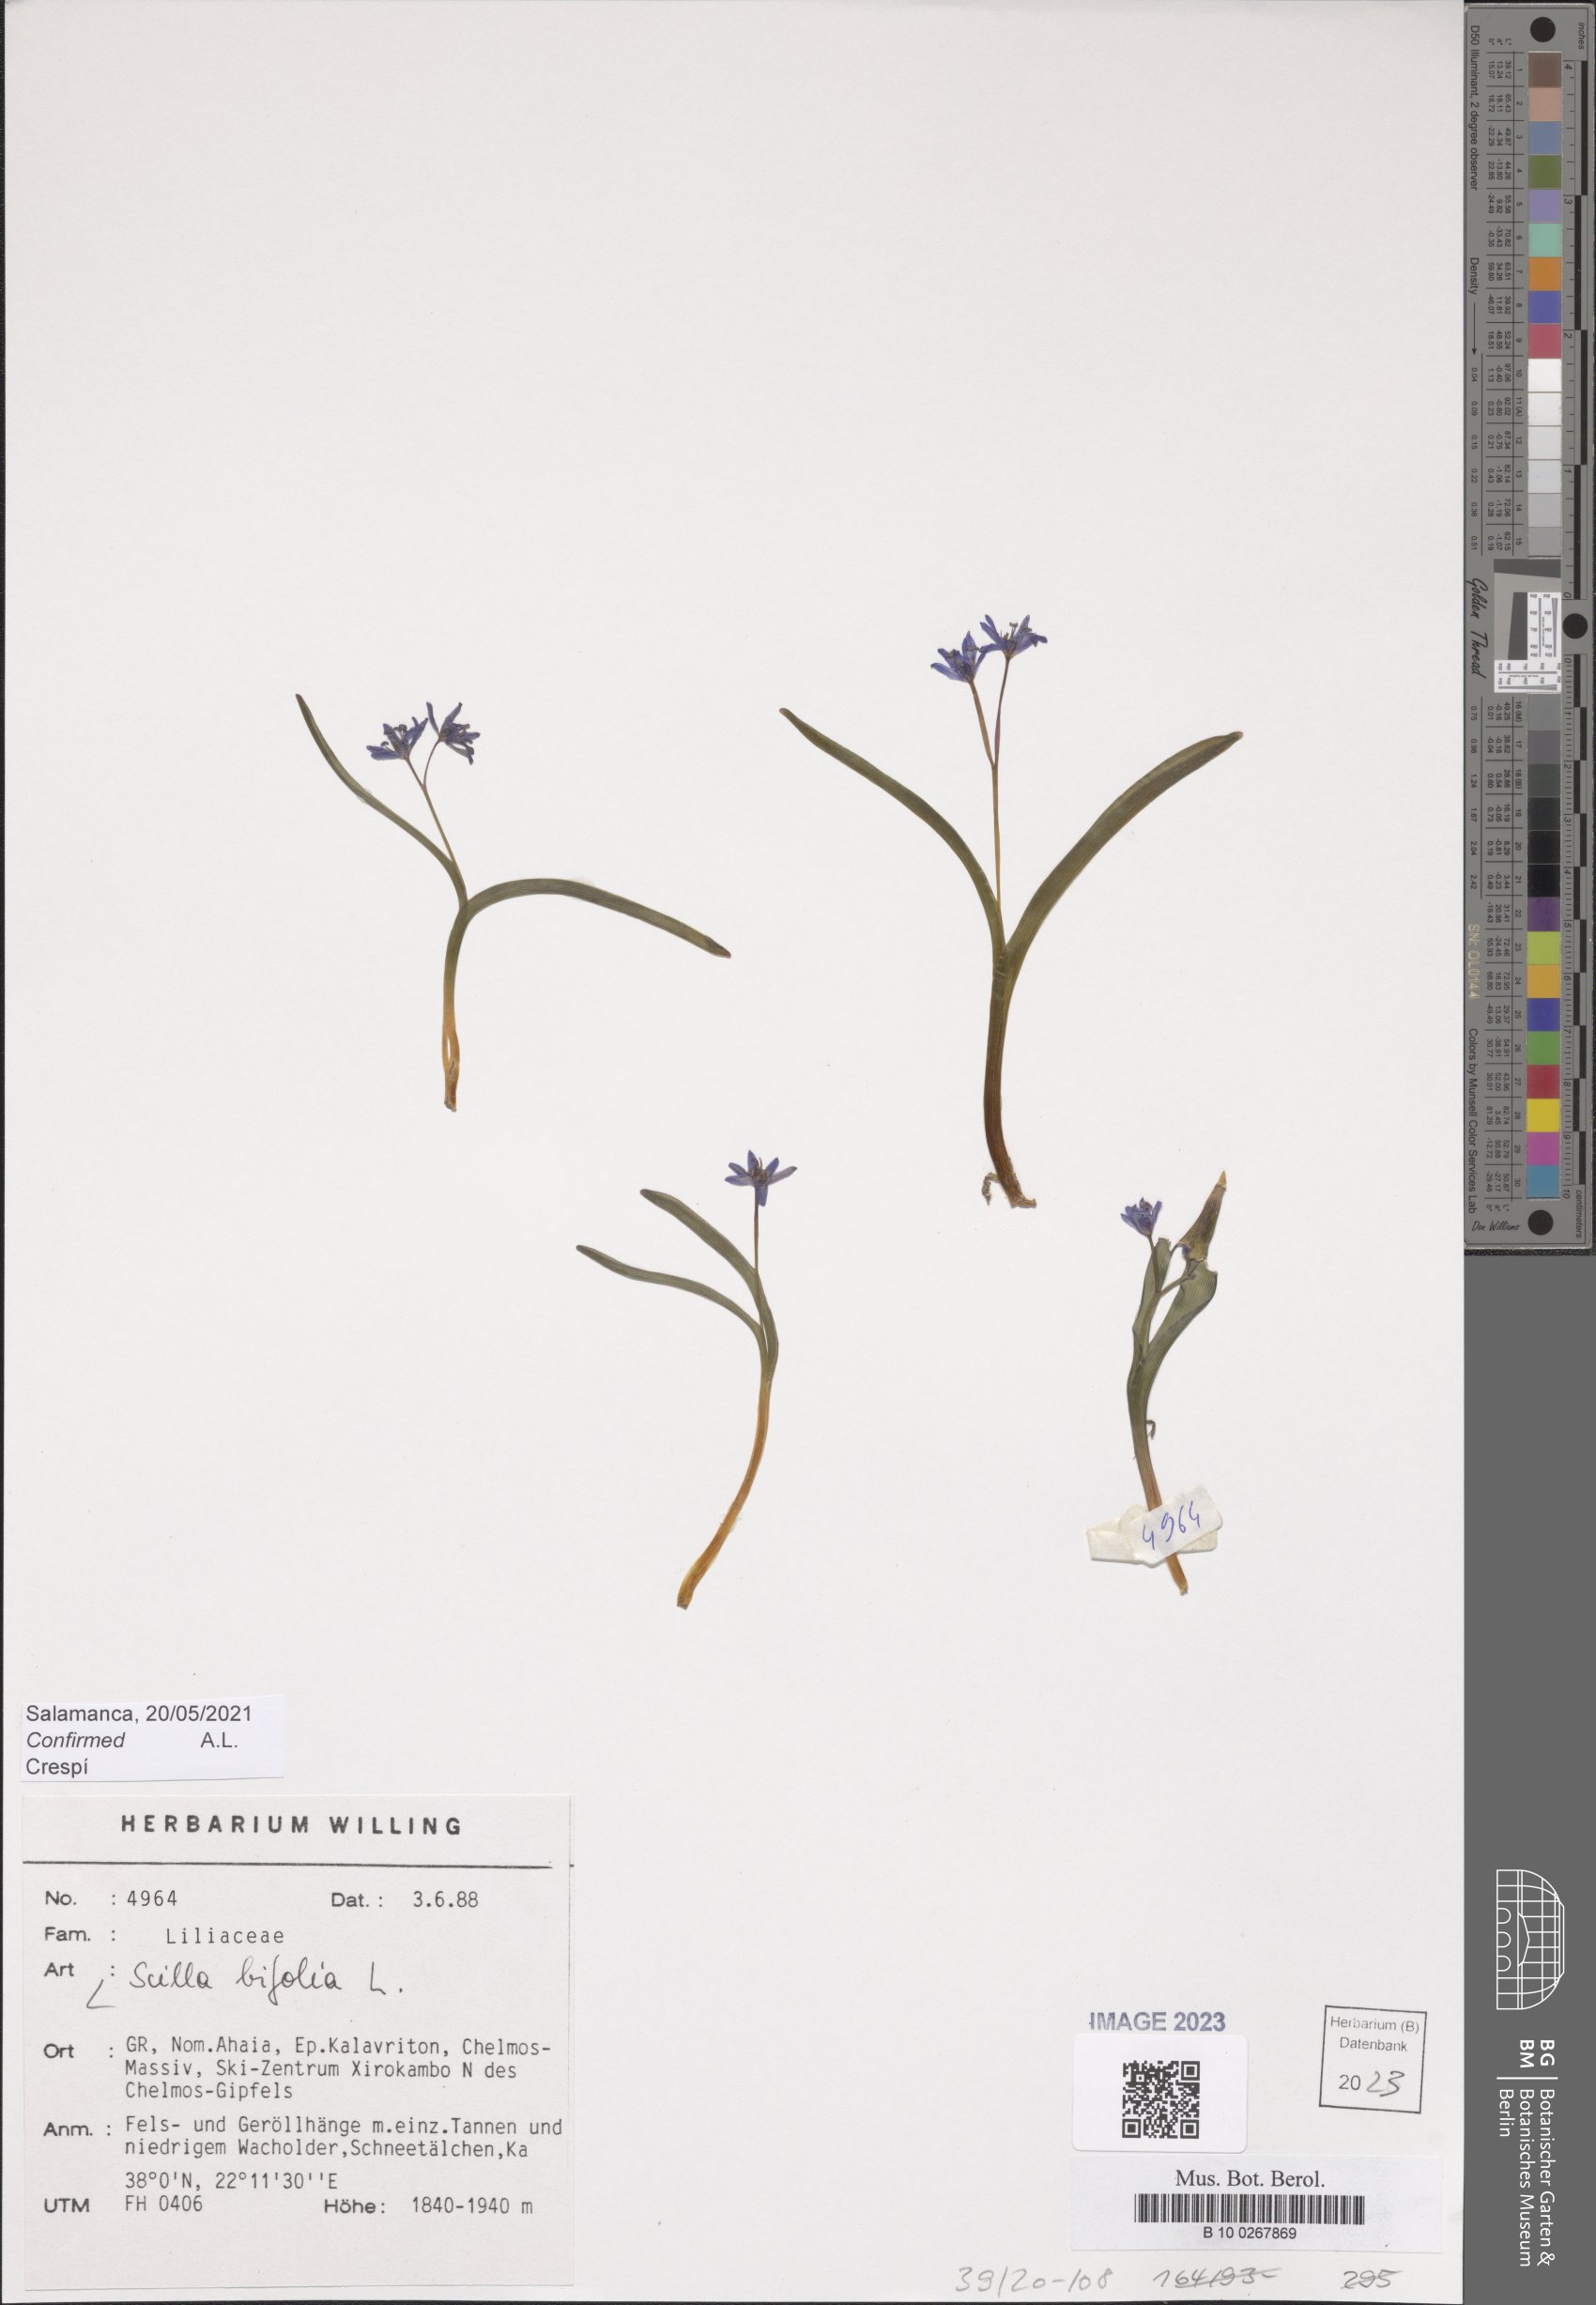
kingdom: Plantae
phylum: Tracheophyta
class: Liliopsida
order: Asparagales
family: Asparagaceae
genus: Scilla
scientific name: Scilla bifolia
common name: Alpine squill
